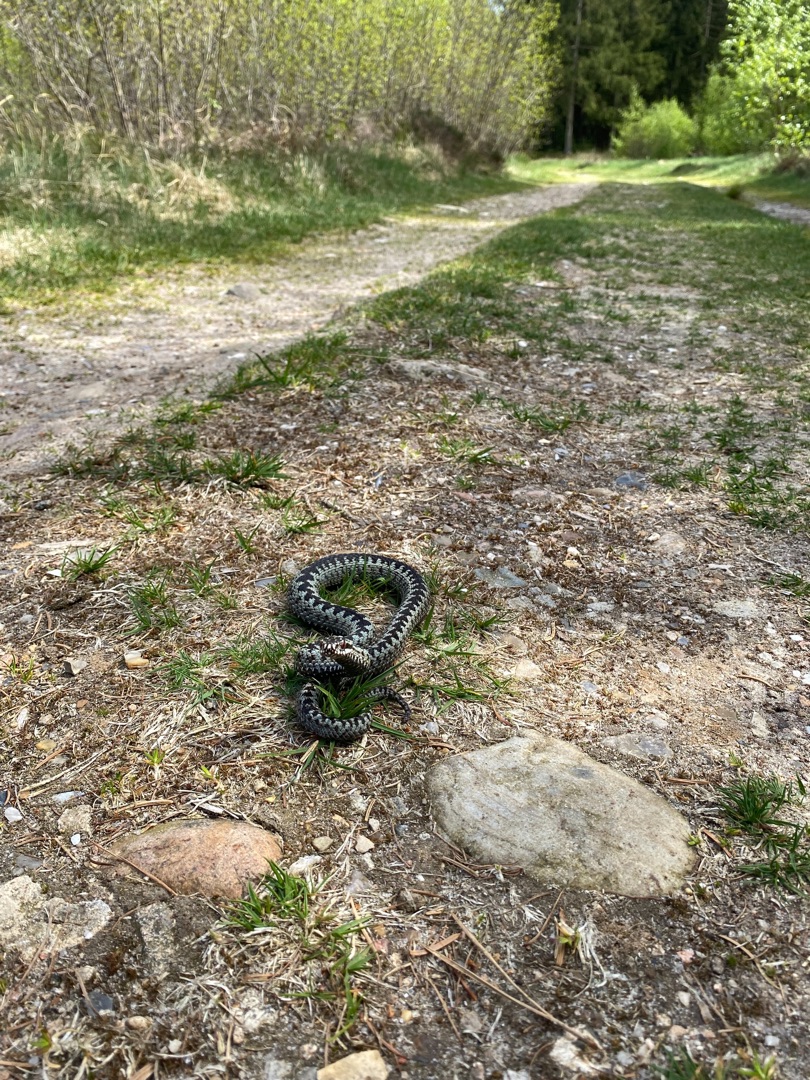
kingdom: Animalia
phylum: Chordata
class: Squamata
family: Viperidae
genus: Vipera
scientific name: Vipera berus
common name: Hugorm
